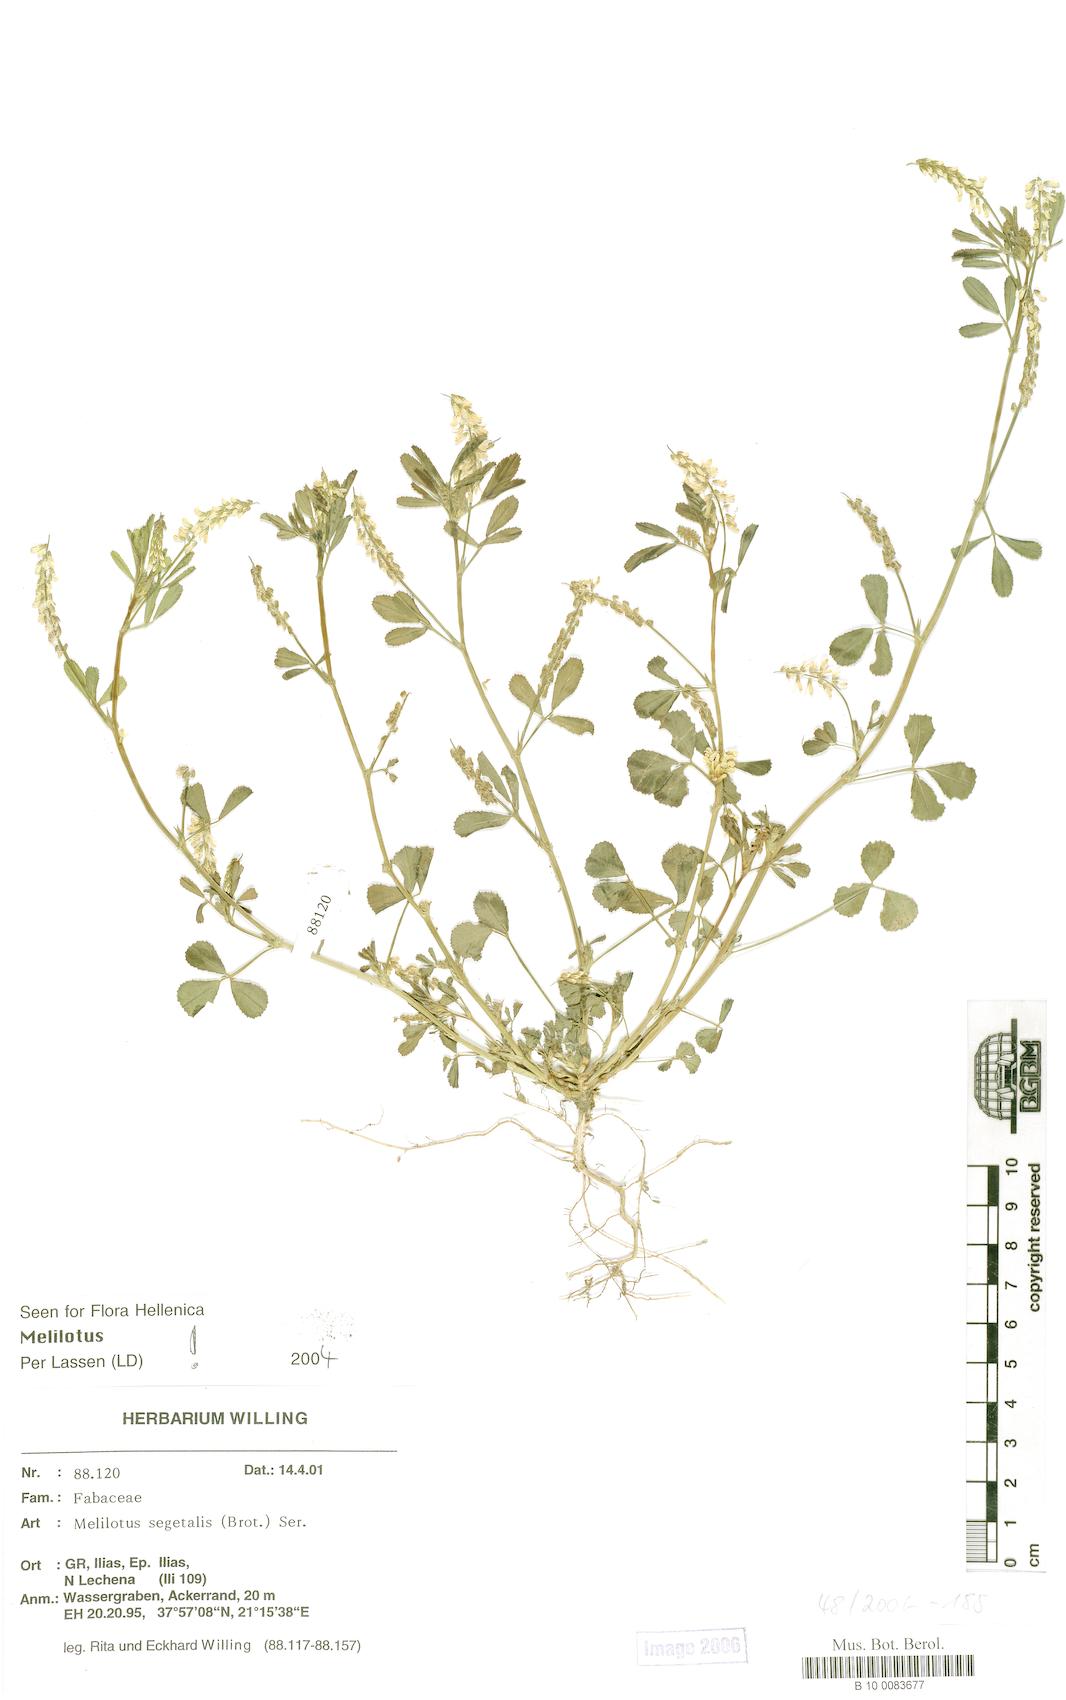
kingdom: Plantae
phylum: Tracheophyta
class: Magnoliopsida
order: Fabales
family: Fabaceae
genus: Melilotus
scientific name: Melilotus segetalis
